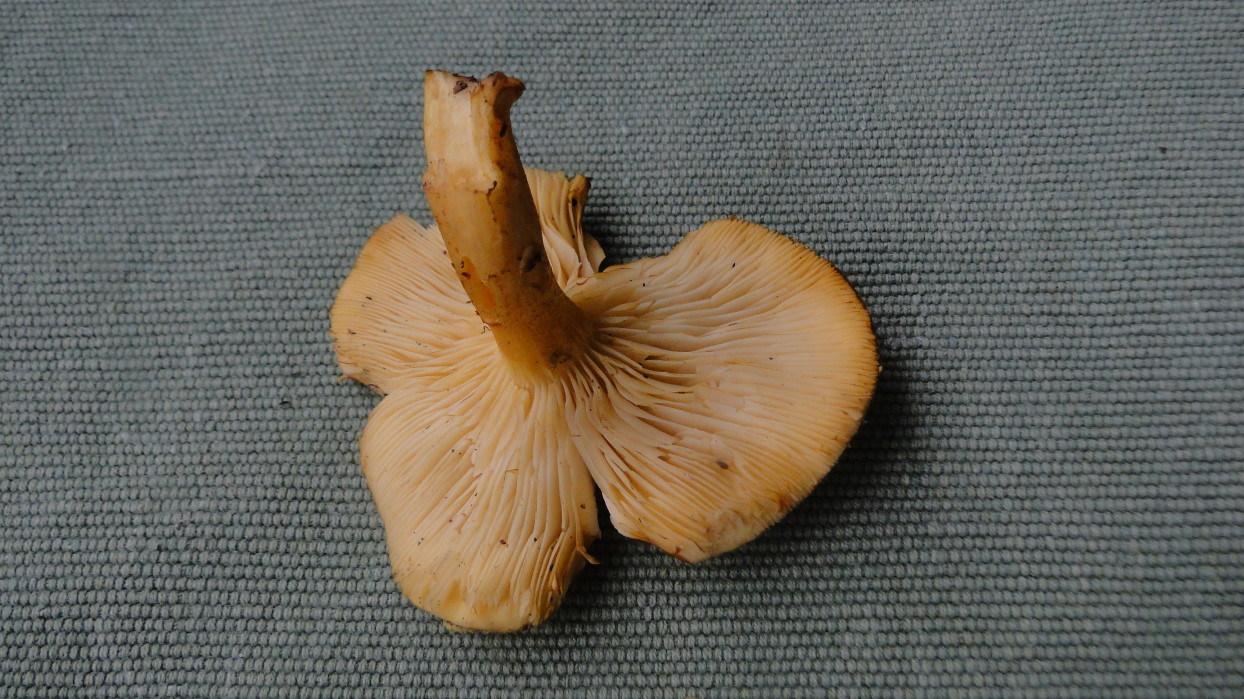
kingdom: Fungi
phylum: Basidiomycota
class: Agaricomycetes
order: Agaricales
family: Tricholomataceae
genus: Tricholomopsis
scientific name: Tricholomopsis rutilans
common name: purpur-væbnerhat
